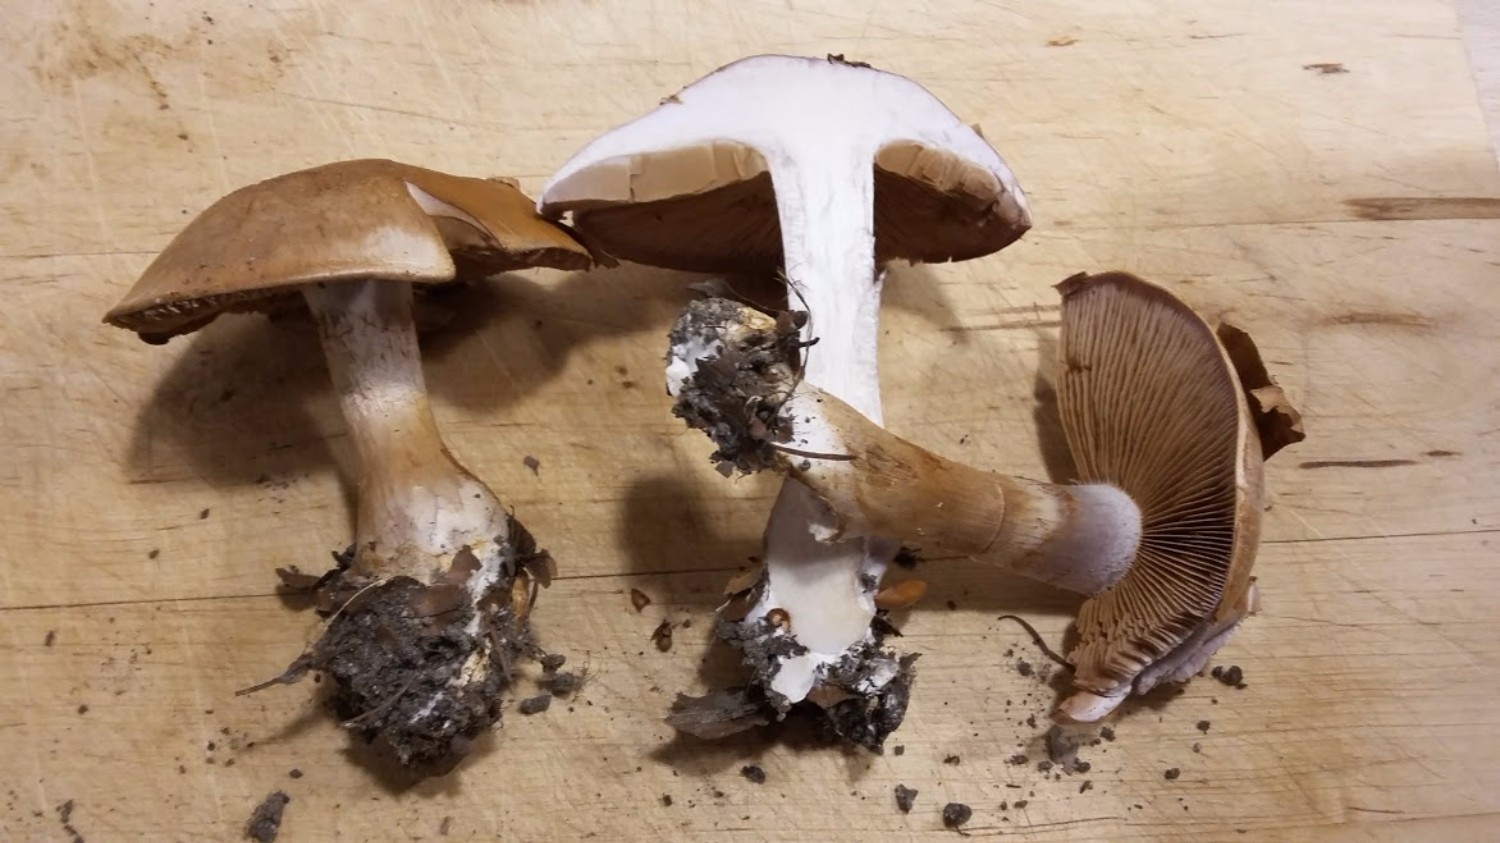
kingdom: Fungi
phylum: Basidiomycota
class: Agaricomycetes
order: Agaricales
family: Cortinariaceae
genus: Cortinarius
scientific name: Cortinarius largus
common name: violetrandet slørhat
